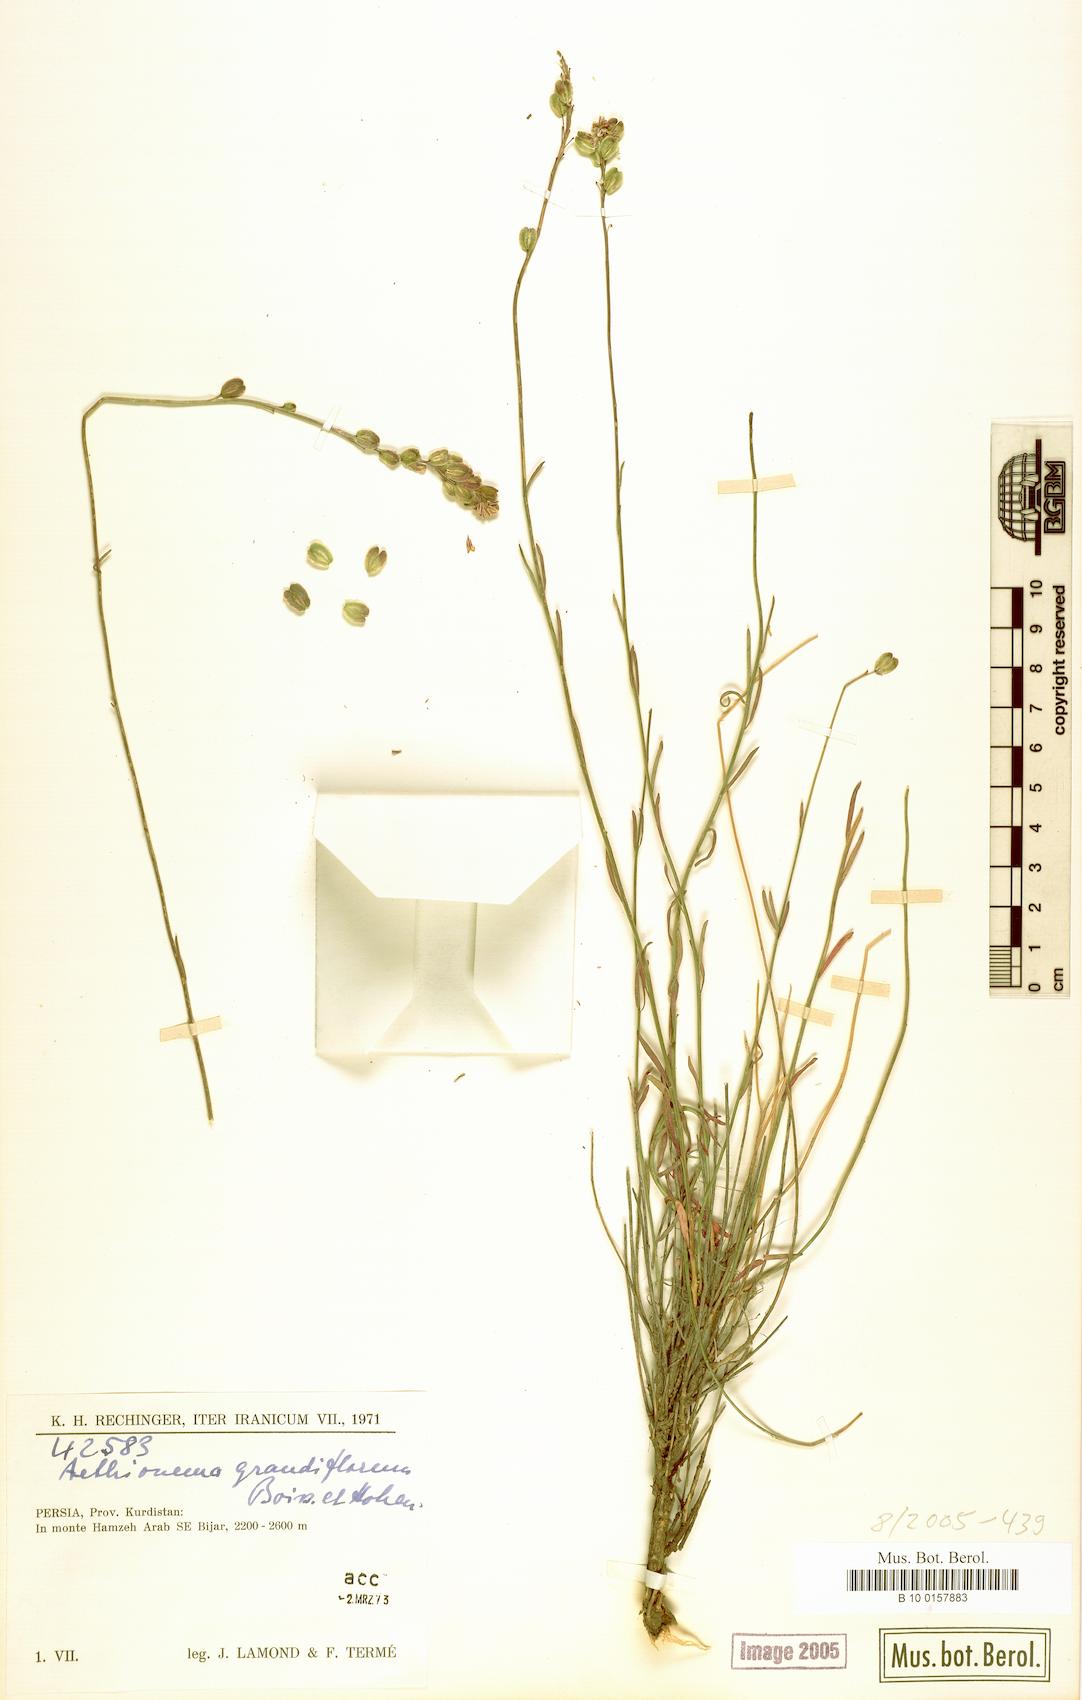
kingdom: Plantae
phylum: Tracheophyta
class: Magnoliopsida
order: Brassicales
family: Brassicaceae
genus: Aethionema
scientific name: Aethionema grandiflorum
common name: Persian stonecress
